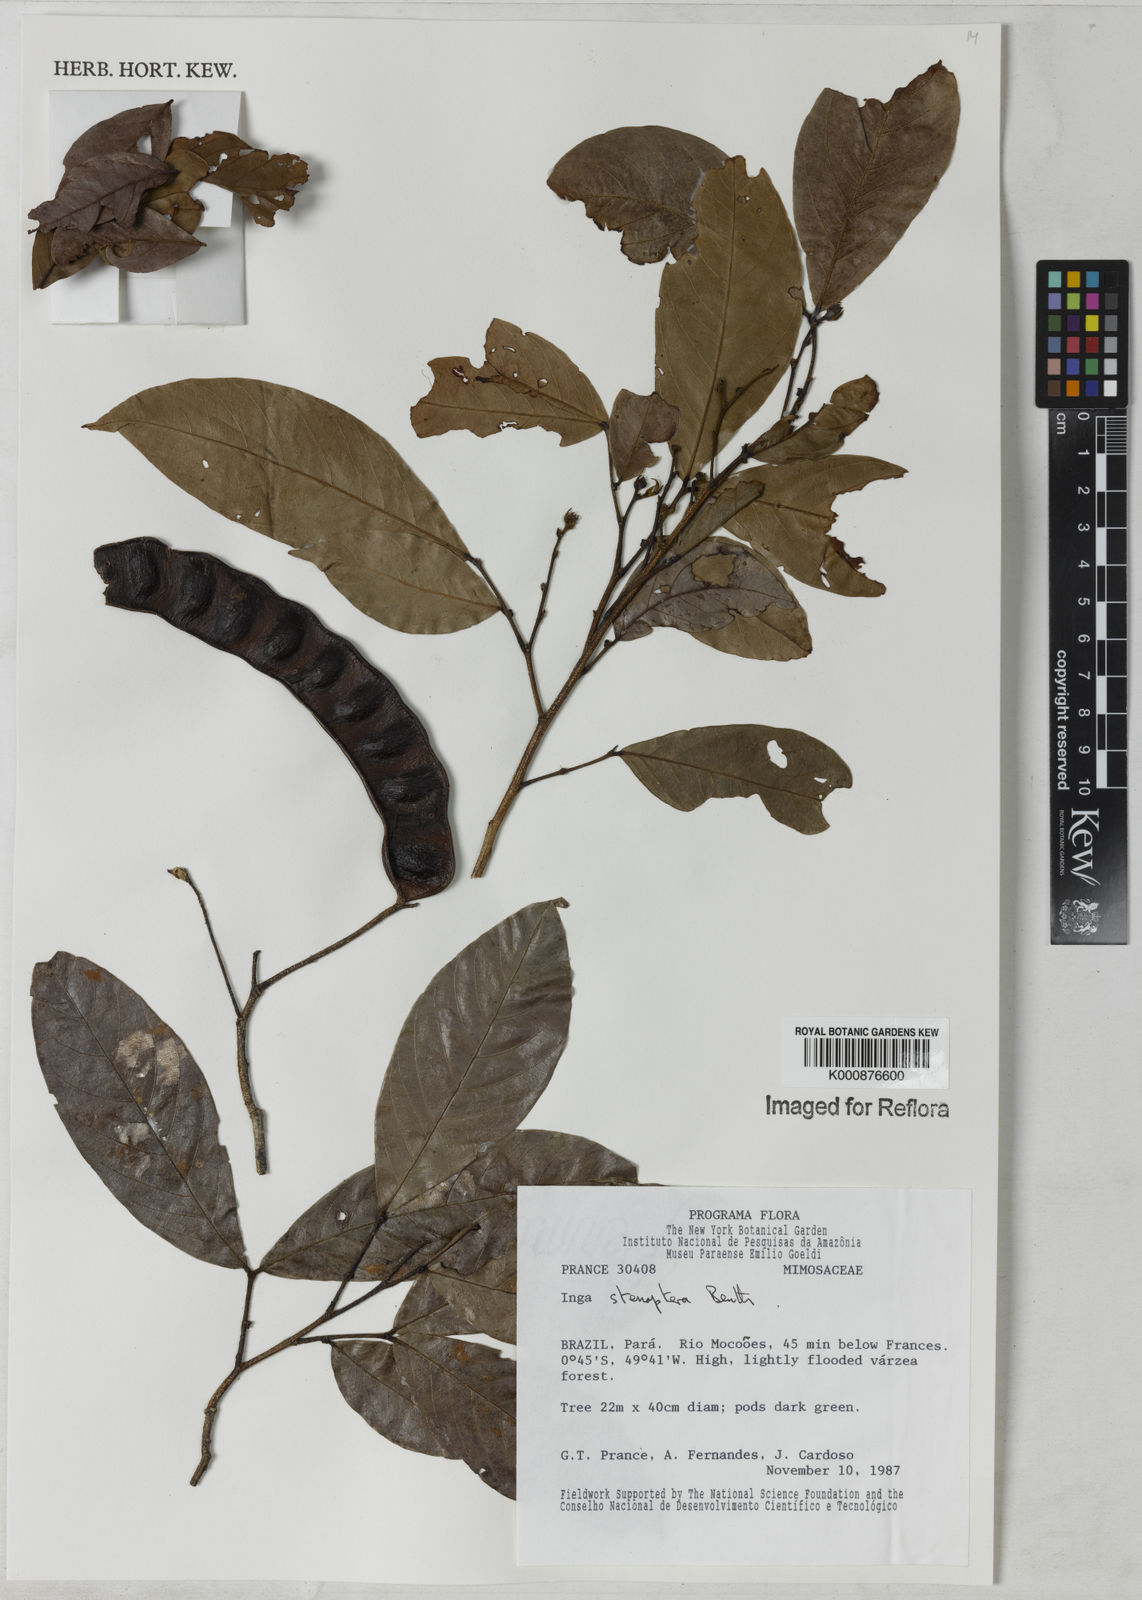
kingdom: Plantae
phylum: Tracheophyta
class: Magnoliopsida
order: Fabales
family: Fabaceae
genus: Inga
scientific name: Inga stenoptera
